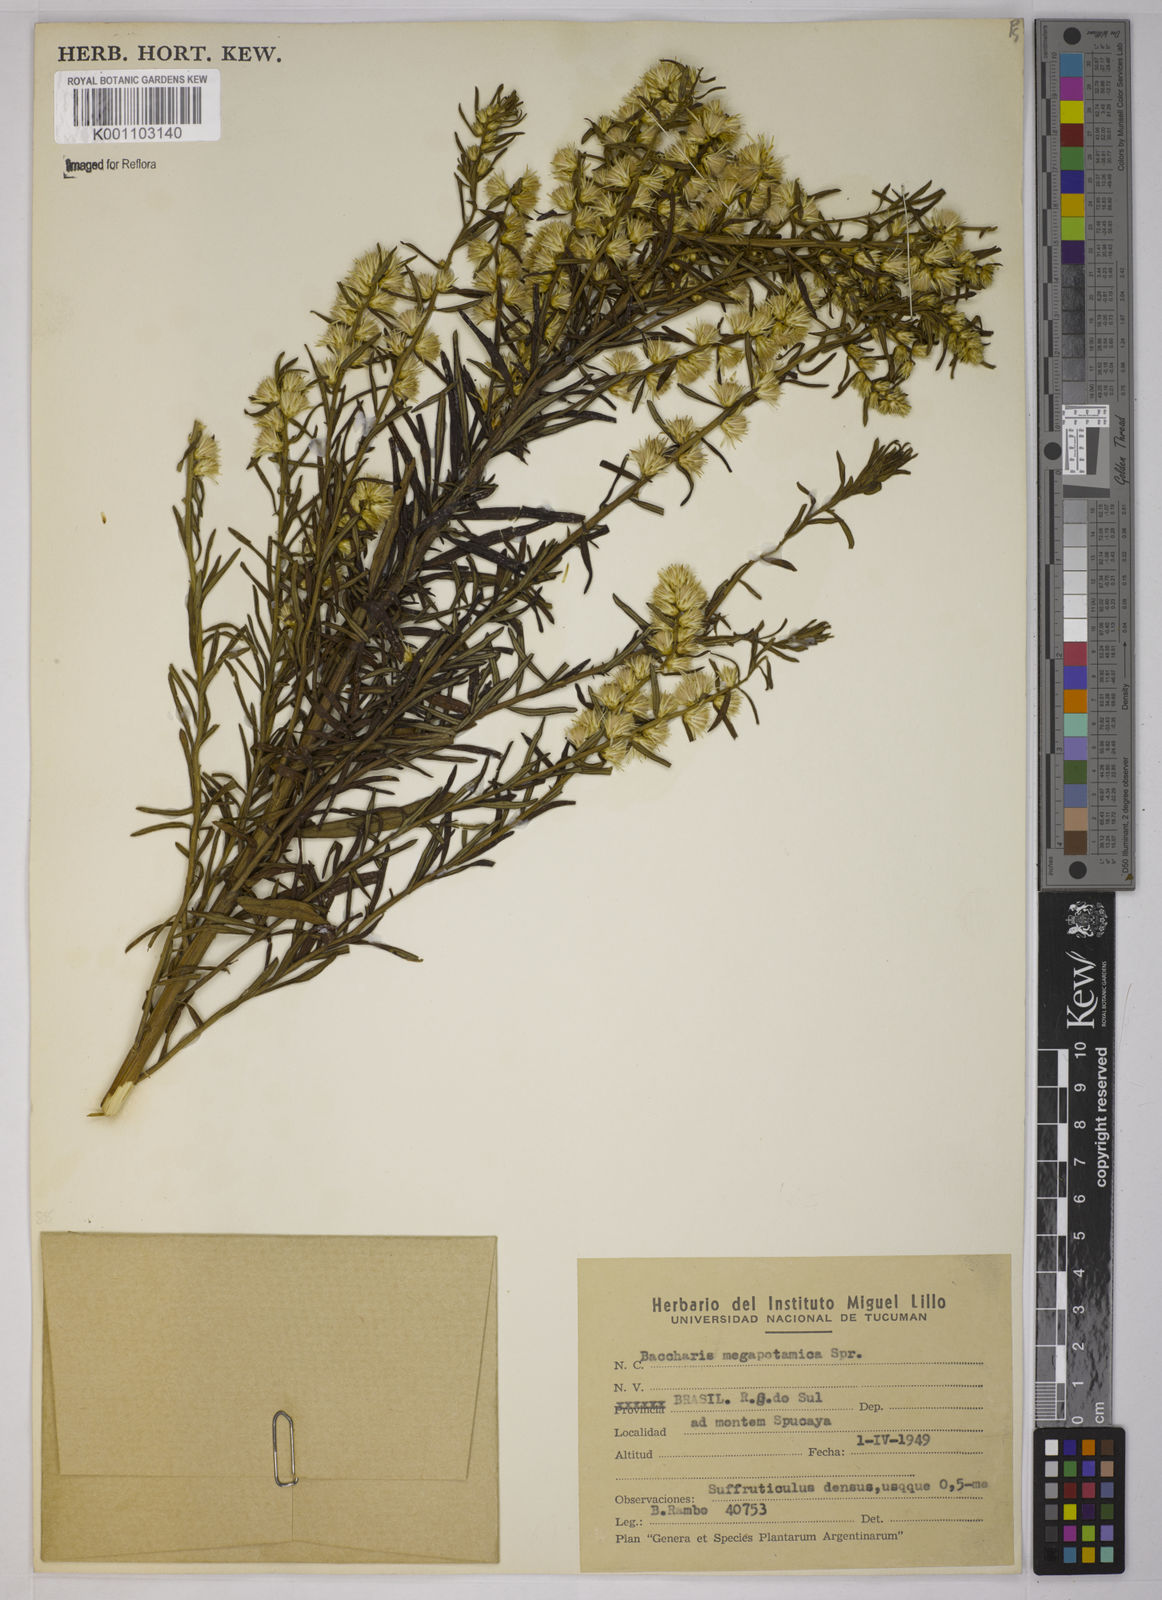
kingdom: Plantae
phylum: Tracheophyta
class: Magnoliopsida
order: Asterales
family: Asteraceae
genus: Baccharis
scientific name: Baccharis megapotamica
